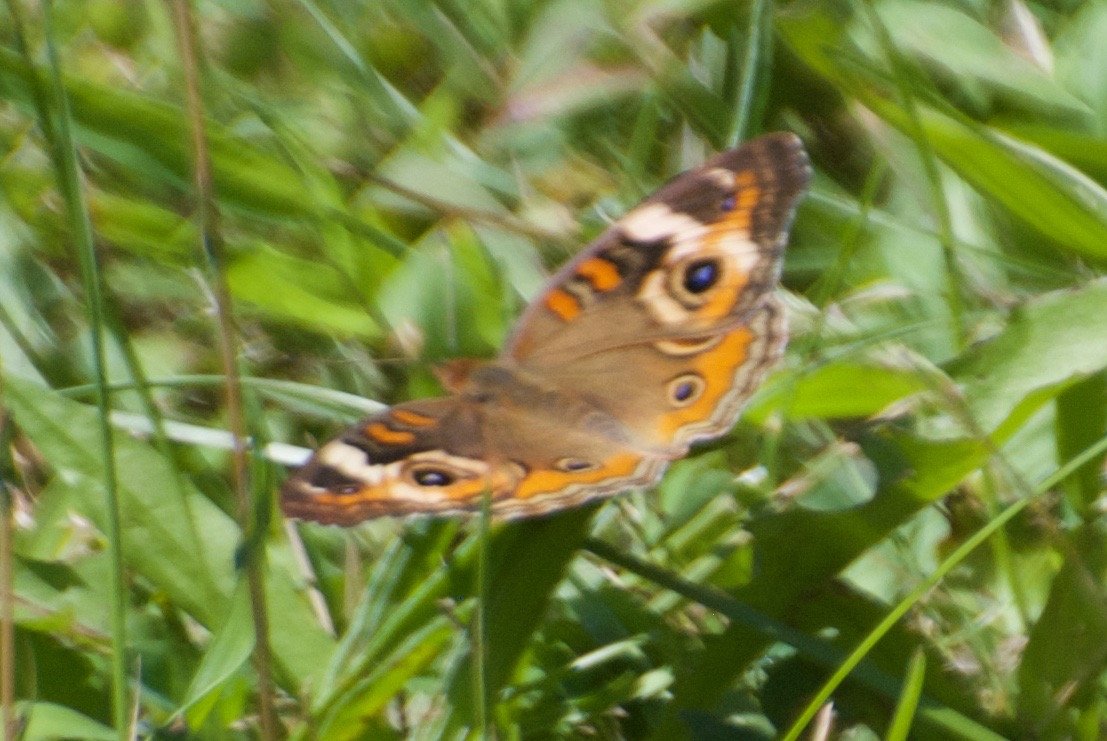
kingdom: Animalia
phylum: Arthropoda
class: Insecta
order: Lepidoptera
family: Nymphalidae
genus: Junonia
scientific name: Junonia coenia
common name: Common Buckeye
